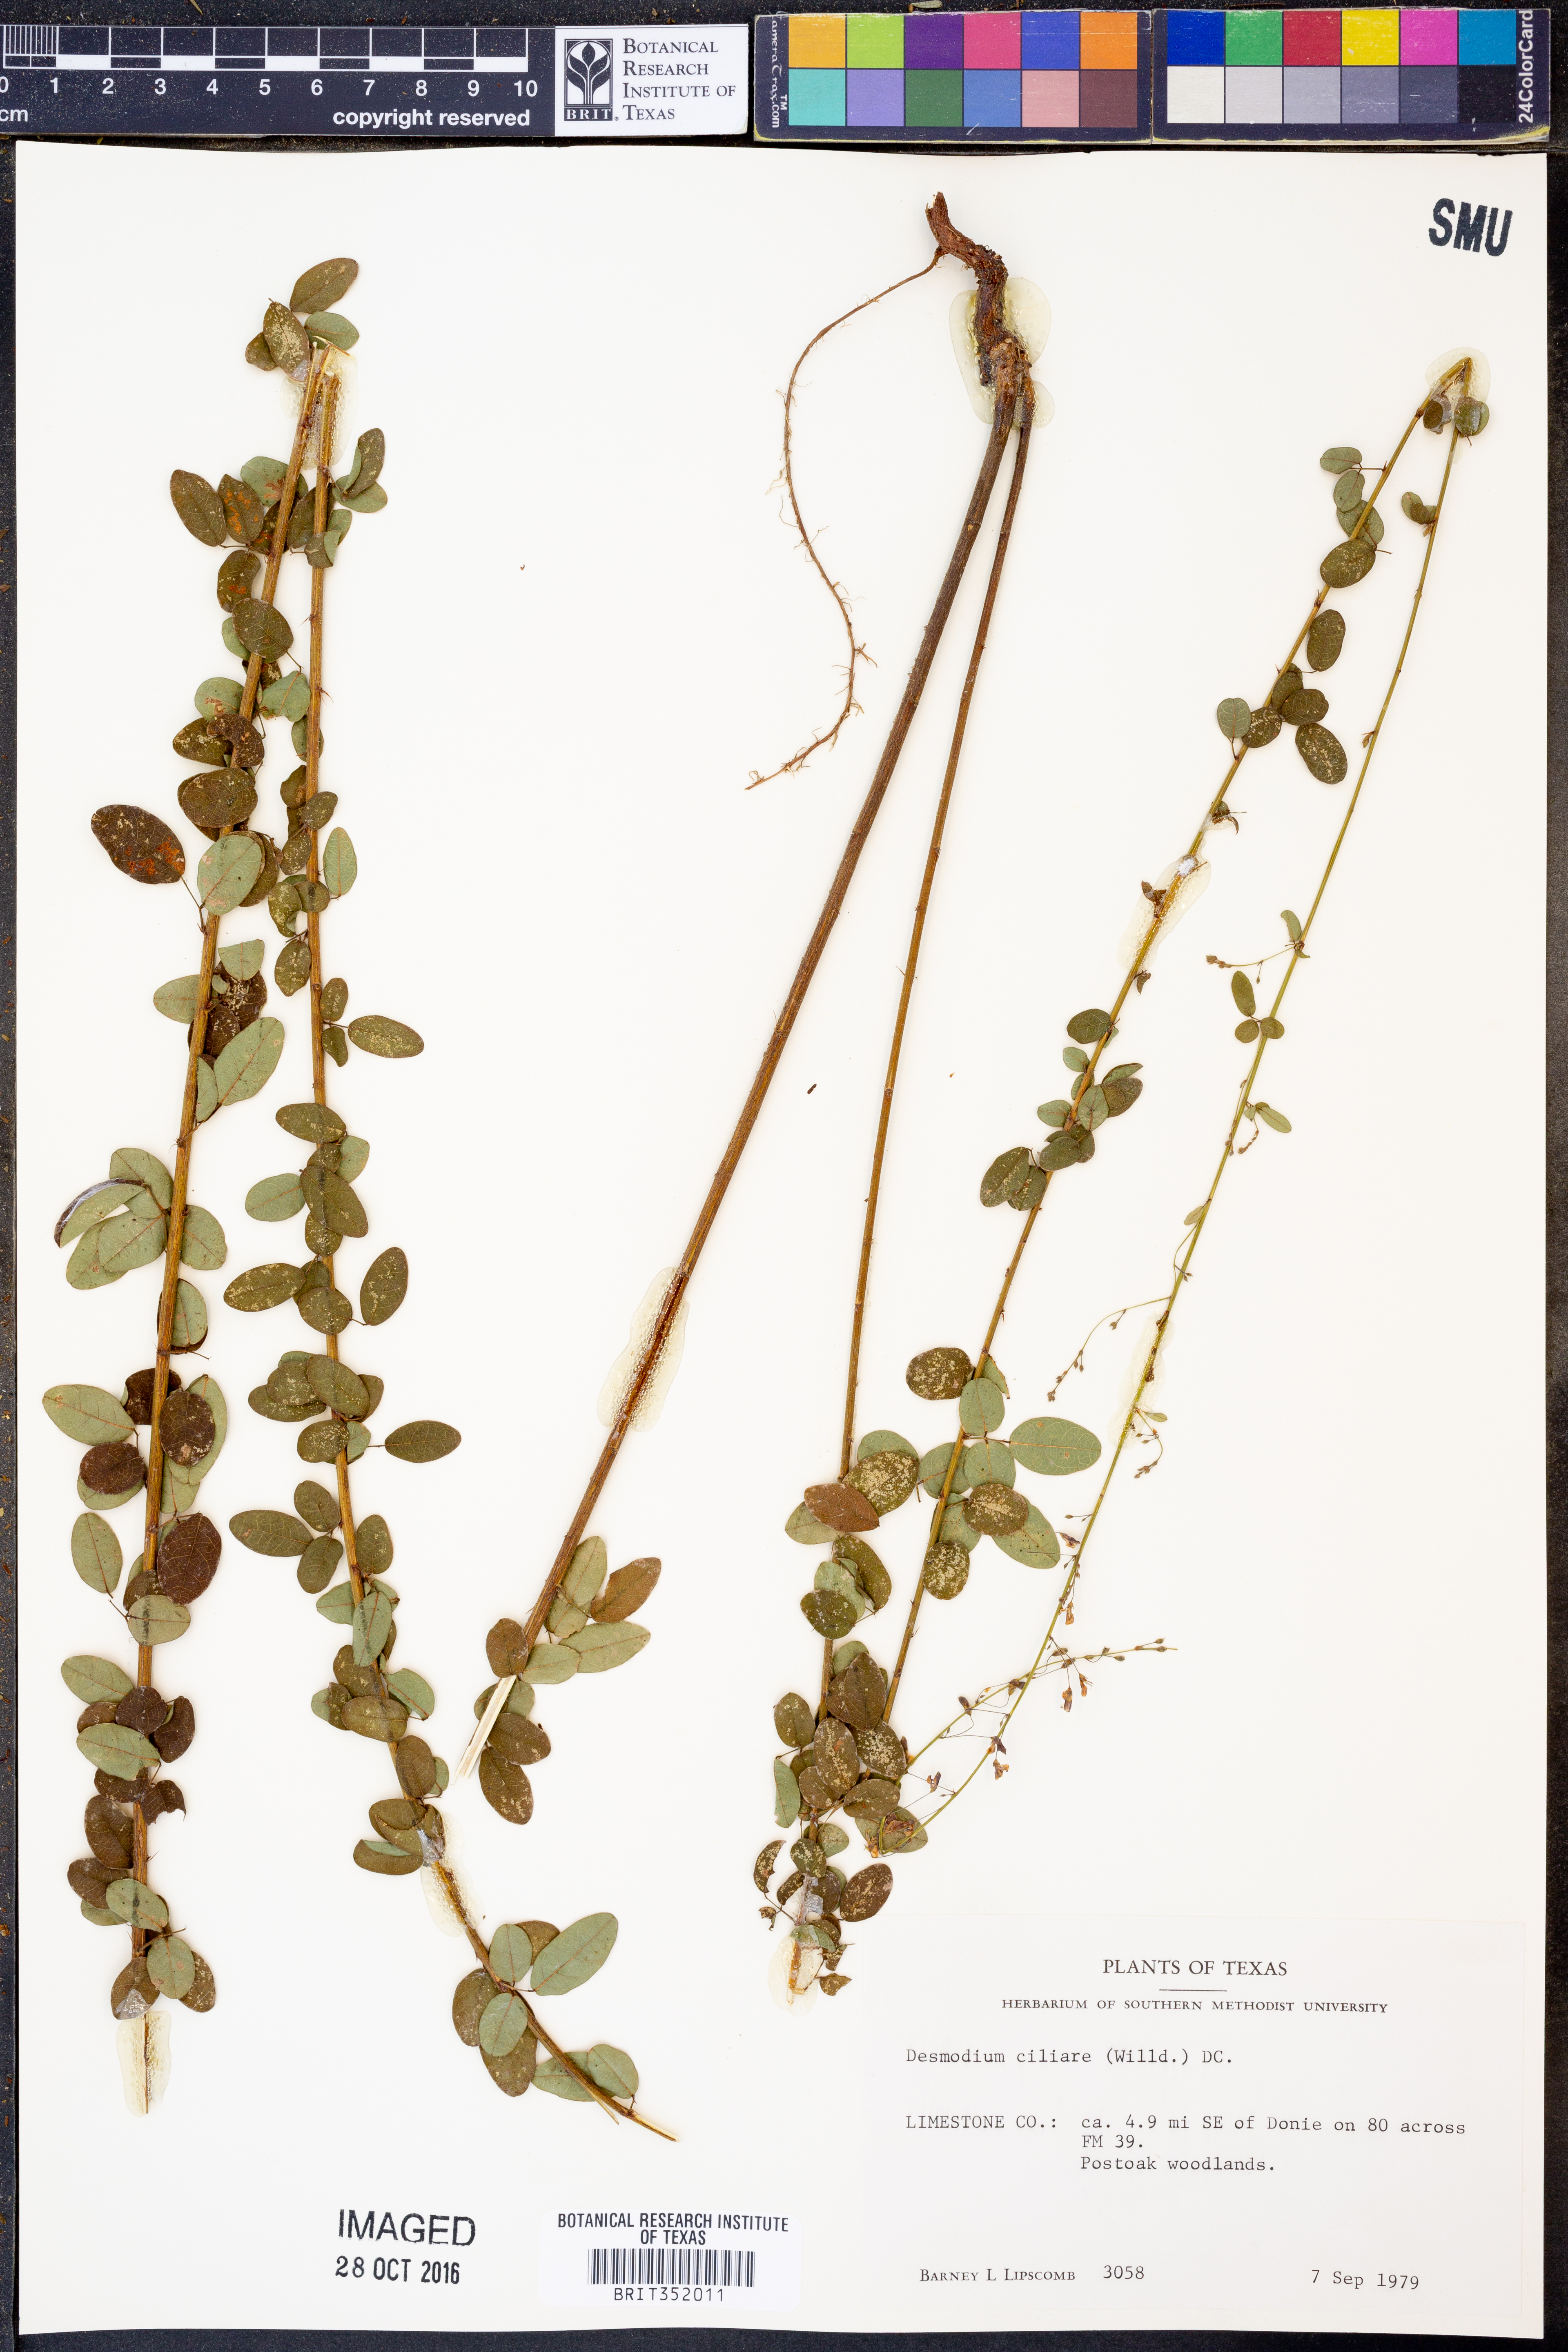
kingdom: Plantae
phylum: Tracheophyta
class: Magnoliopsida
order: Fabales
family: Fabaceae
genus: Desmodium
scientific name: Desmodium ciliare
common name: Hairy small-leaf ticktrefoil
